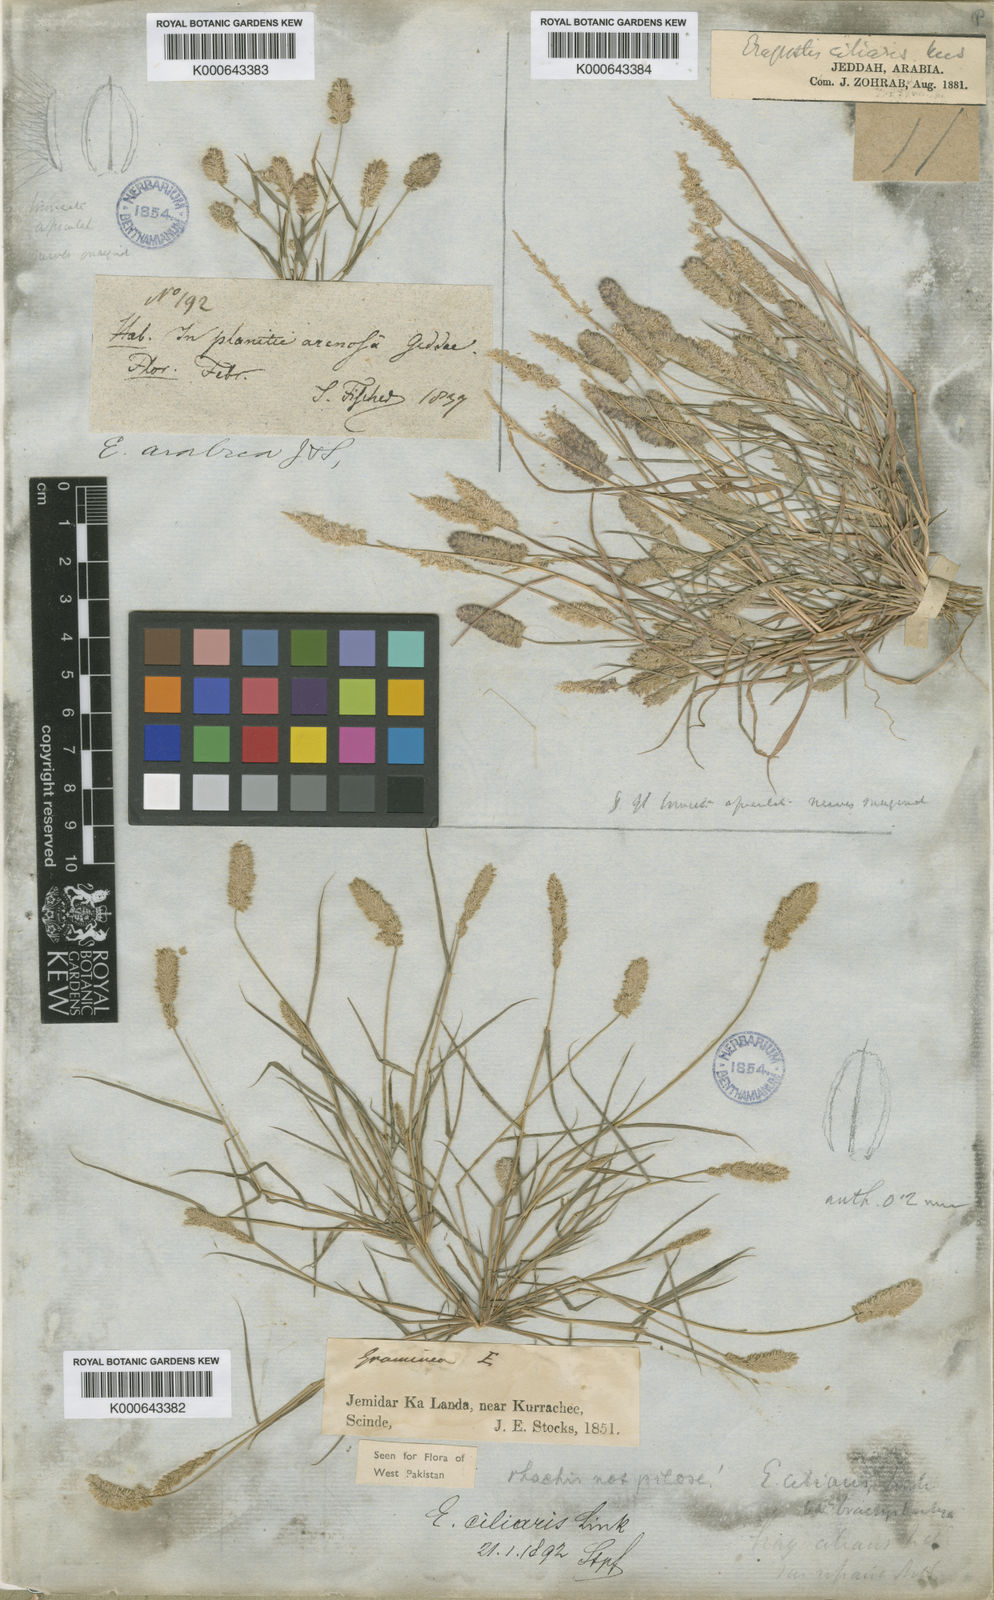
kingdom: Plantae
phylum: Tracheophyta
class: Liliopsida
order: Poales
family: Poaceae
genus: Eragrostis
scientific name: Eragrostis
